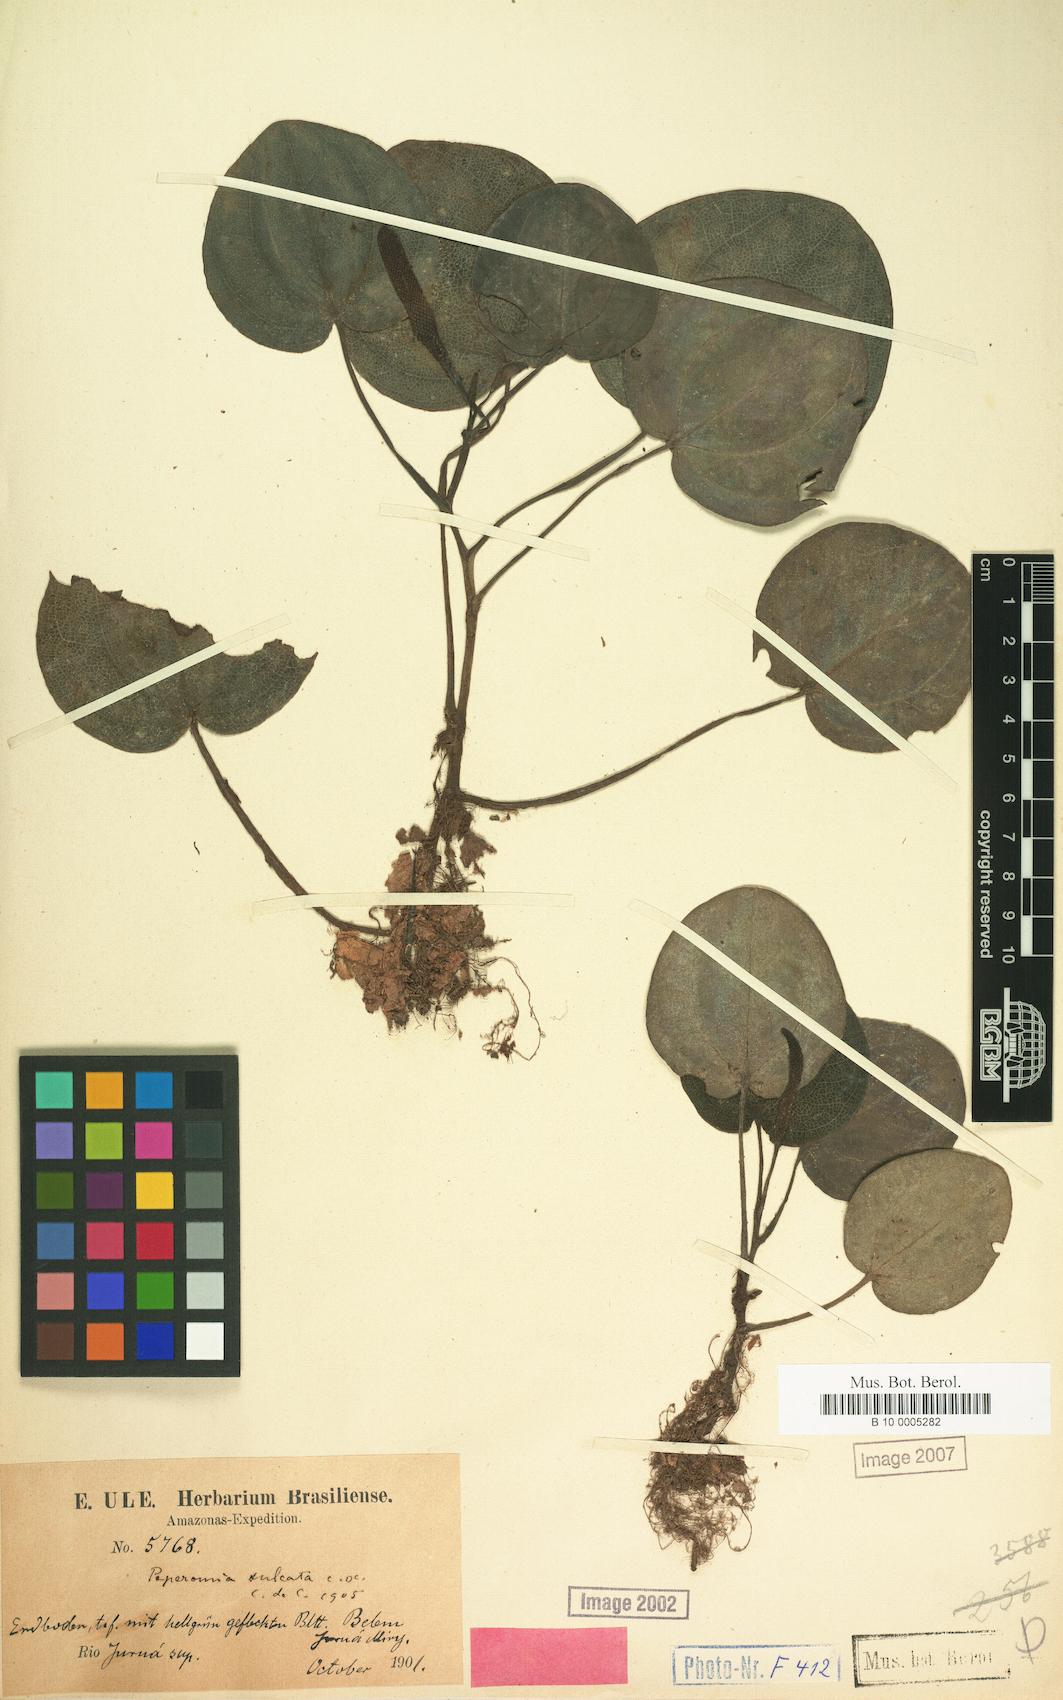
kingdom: Plantae
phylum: Tracheophyta
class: Magnoliopsida
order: Piperales
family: Piperaceae
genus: Peperomia
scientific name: Peperomia sulcata
